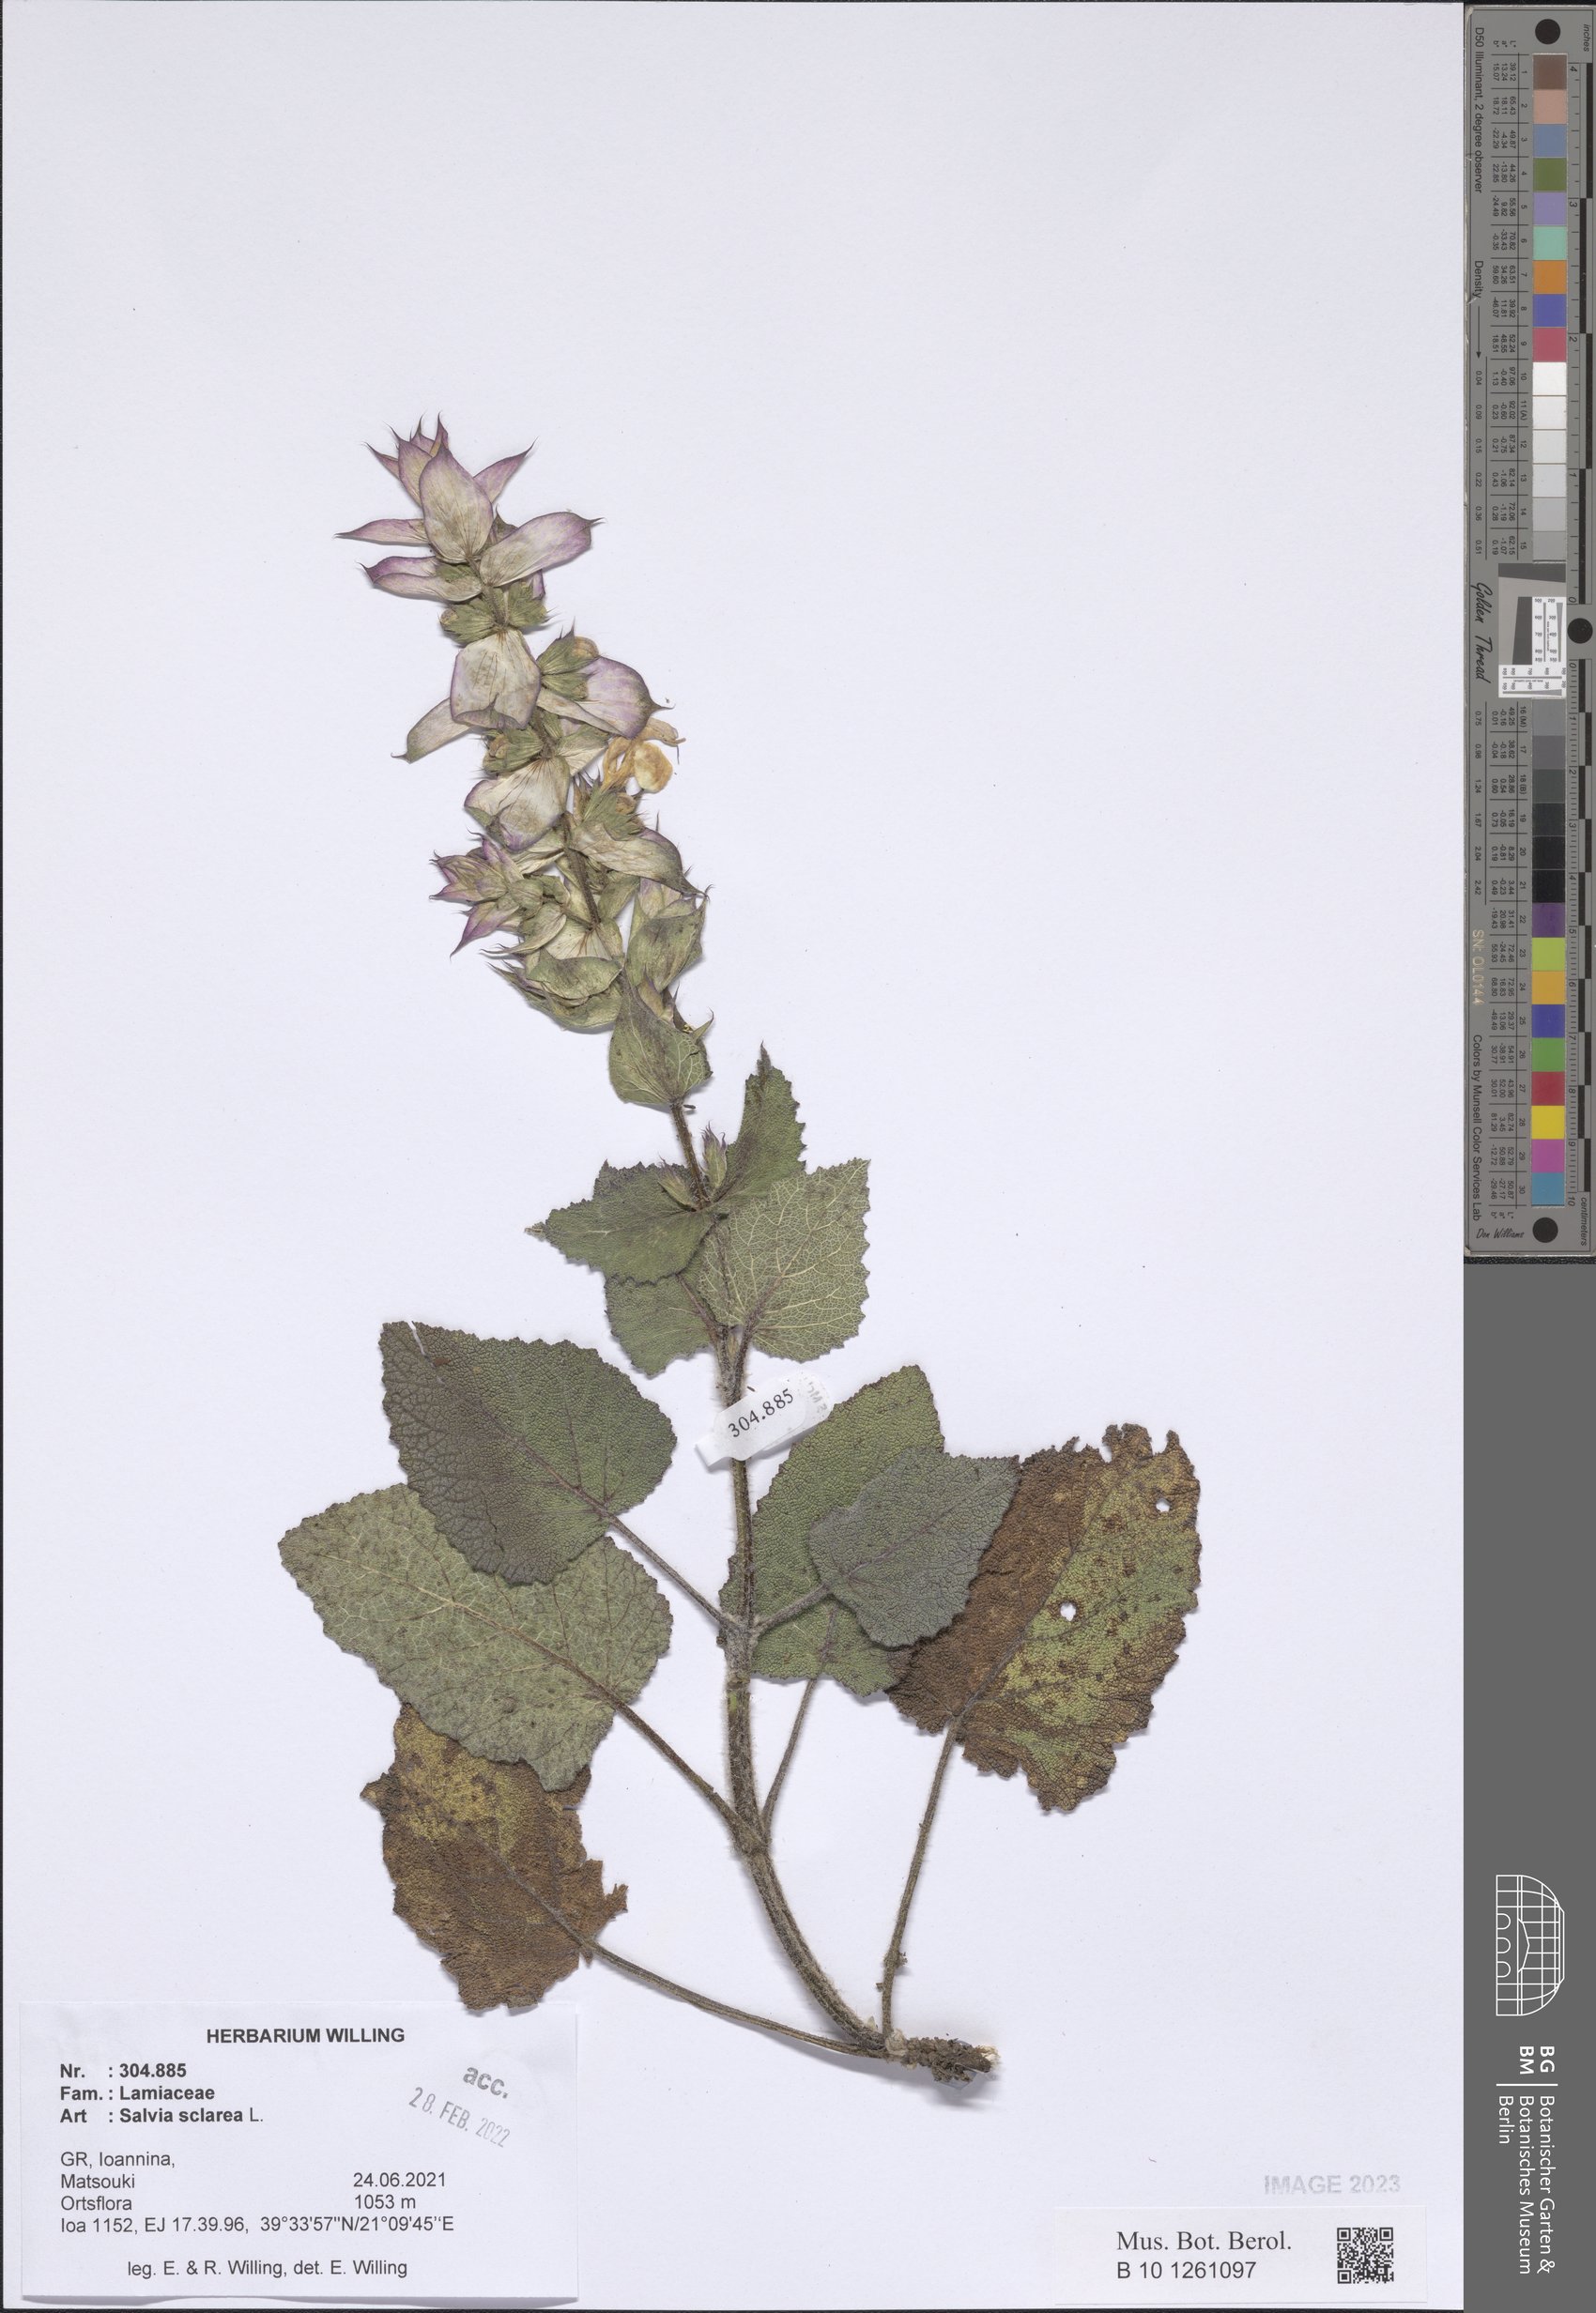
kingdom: Plantae
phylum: Tracheophyta
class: Magnoliopsida
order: Lamiales
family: Lamiaceae
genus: Salvia
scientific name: Salvia sclarea
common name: Clary
